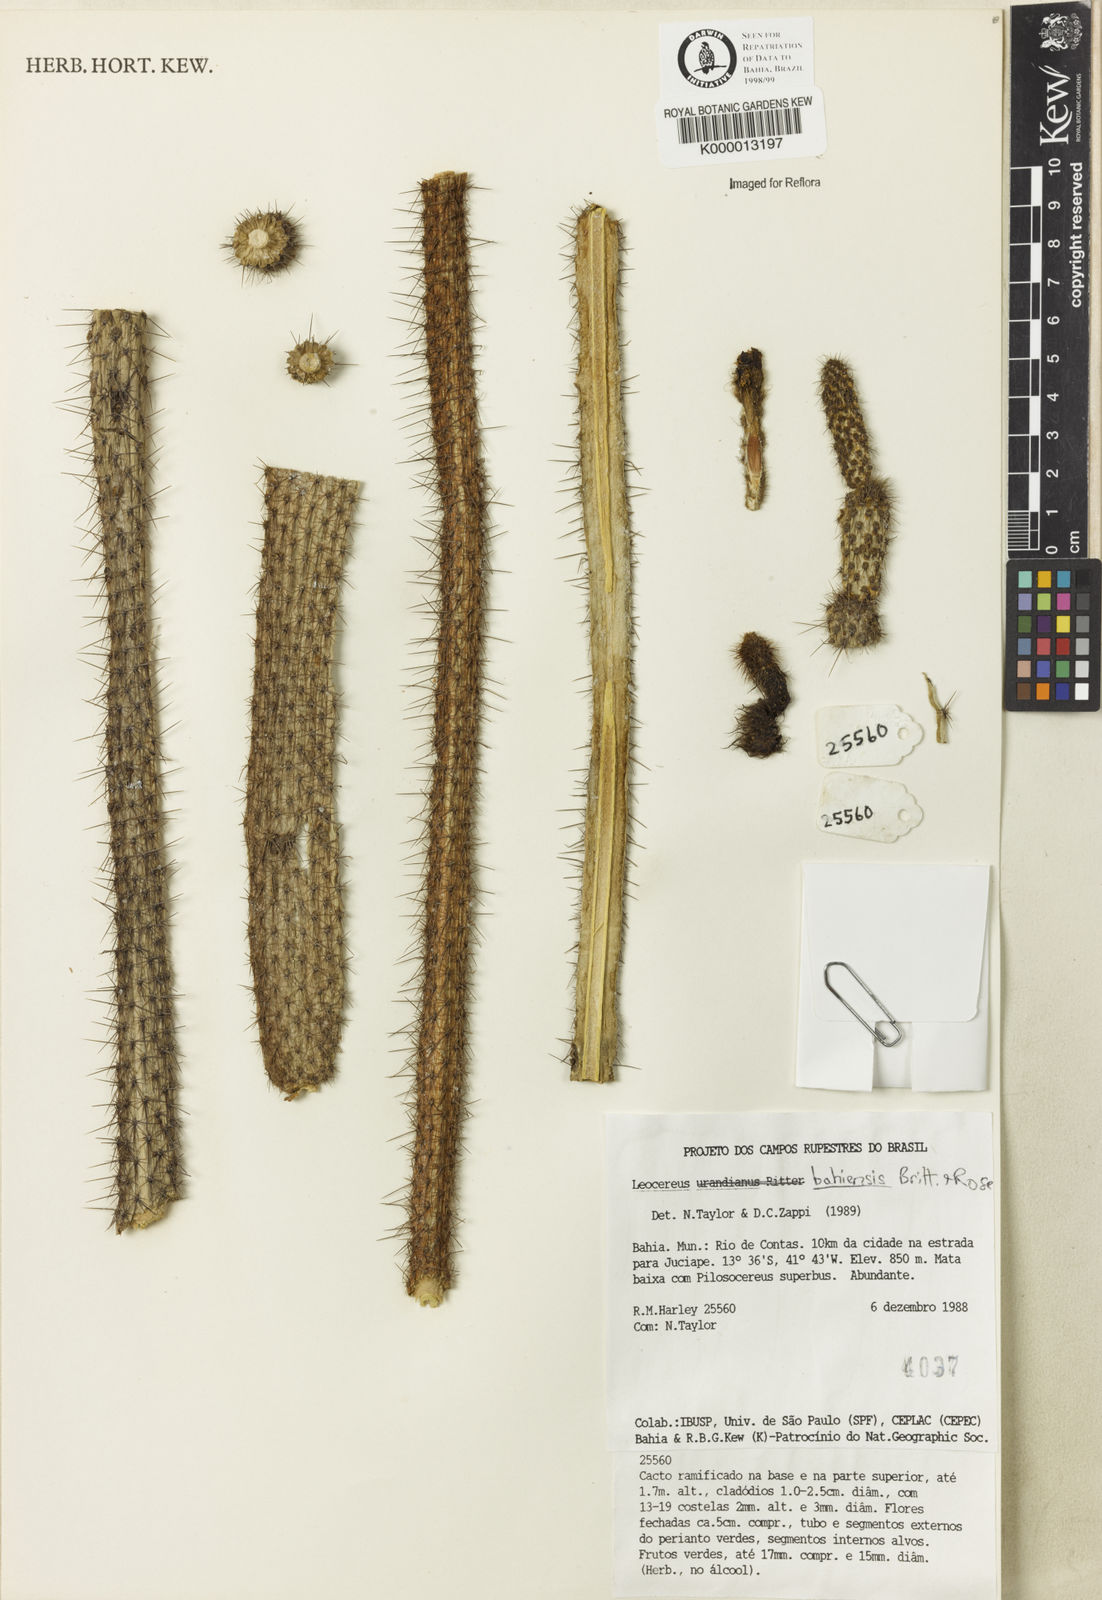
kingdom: Plantae
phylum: Tracheophyta
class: Magnoliopsida
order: Caryophyllales
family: Cactaceae
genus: Leocereus
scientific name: Leocereus bahiensis
